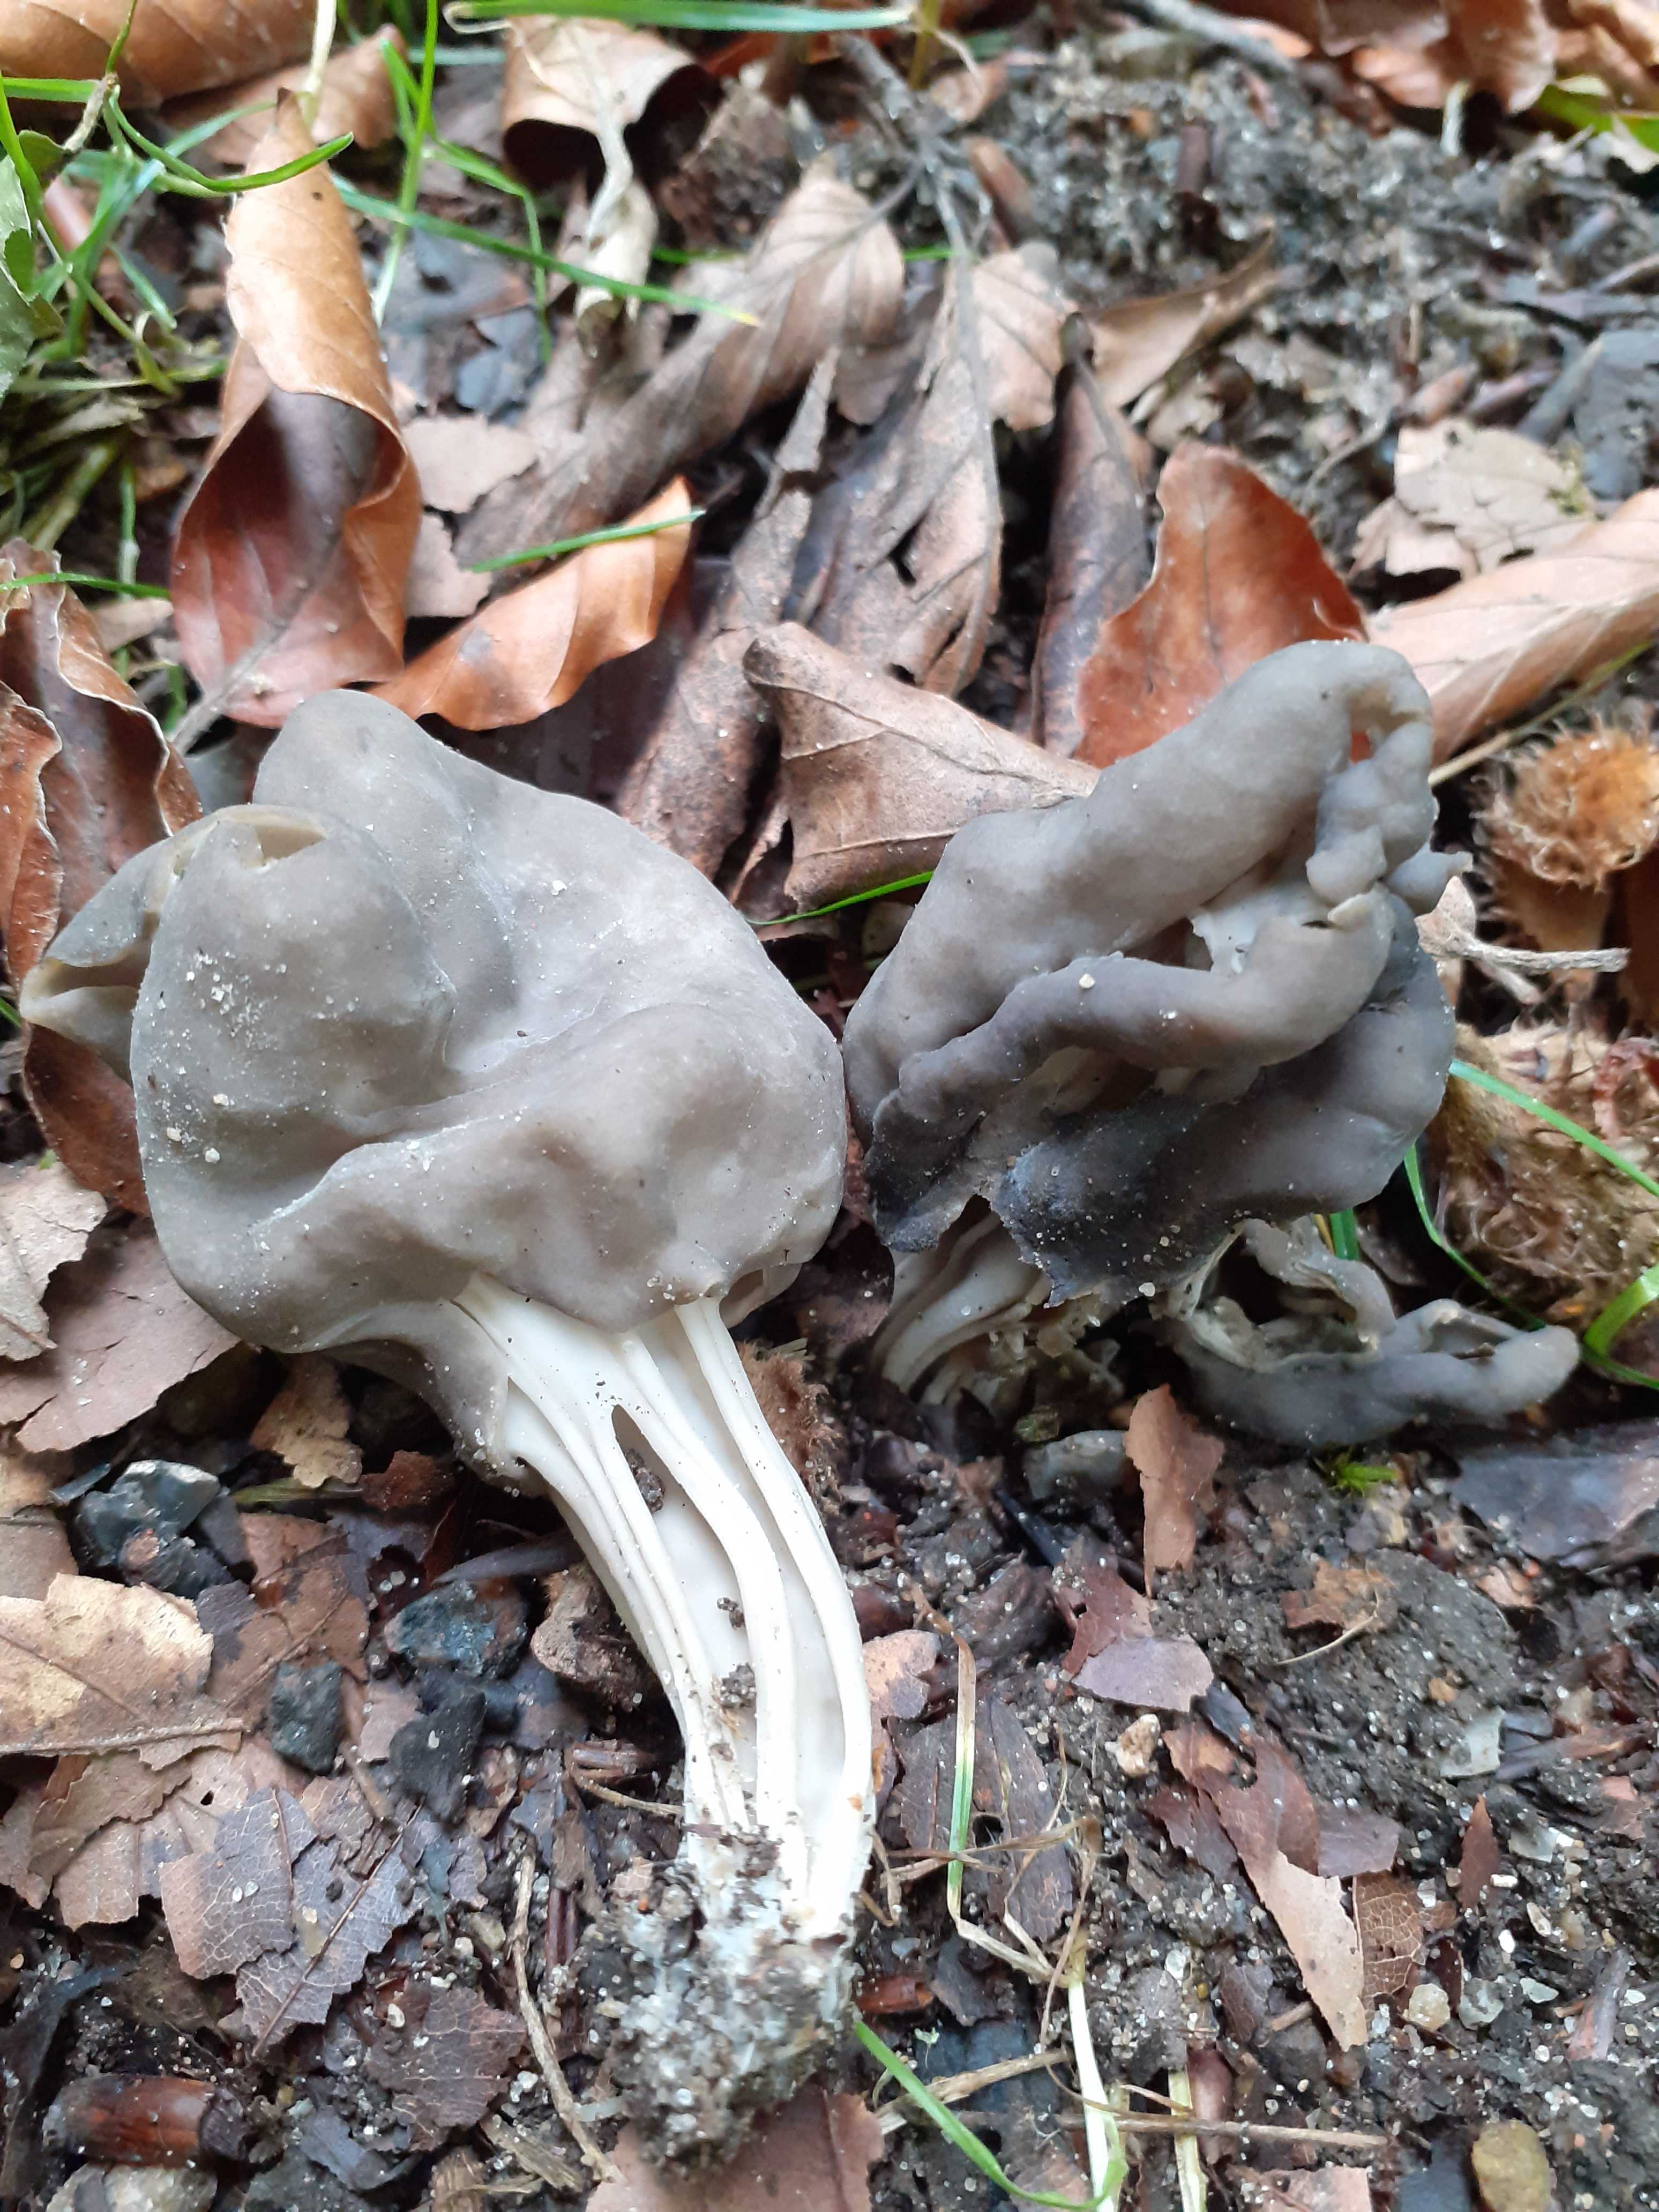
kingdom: Fungi
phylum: Ascomycota
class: Pezizomycetes
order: Pezizales
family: Helvellaceae
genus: Helvella
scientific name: Helvella lacunosa
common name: grubet foldhat
